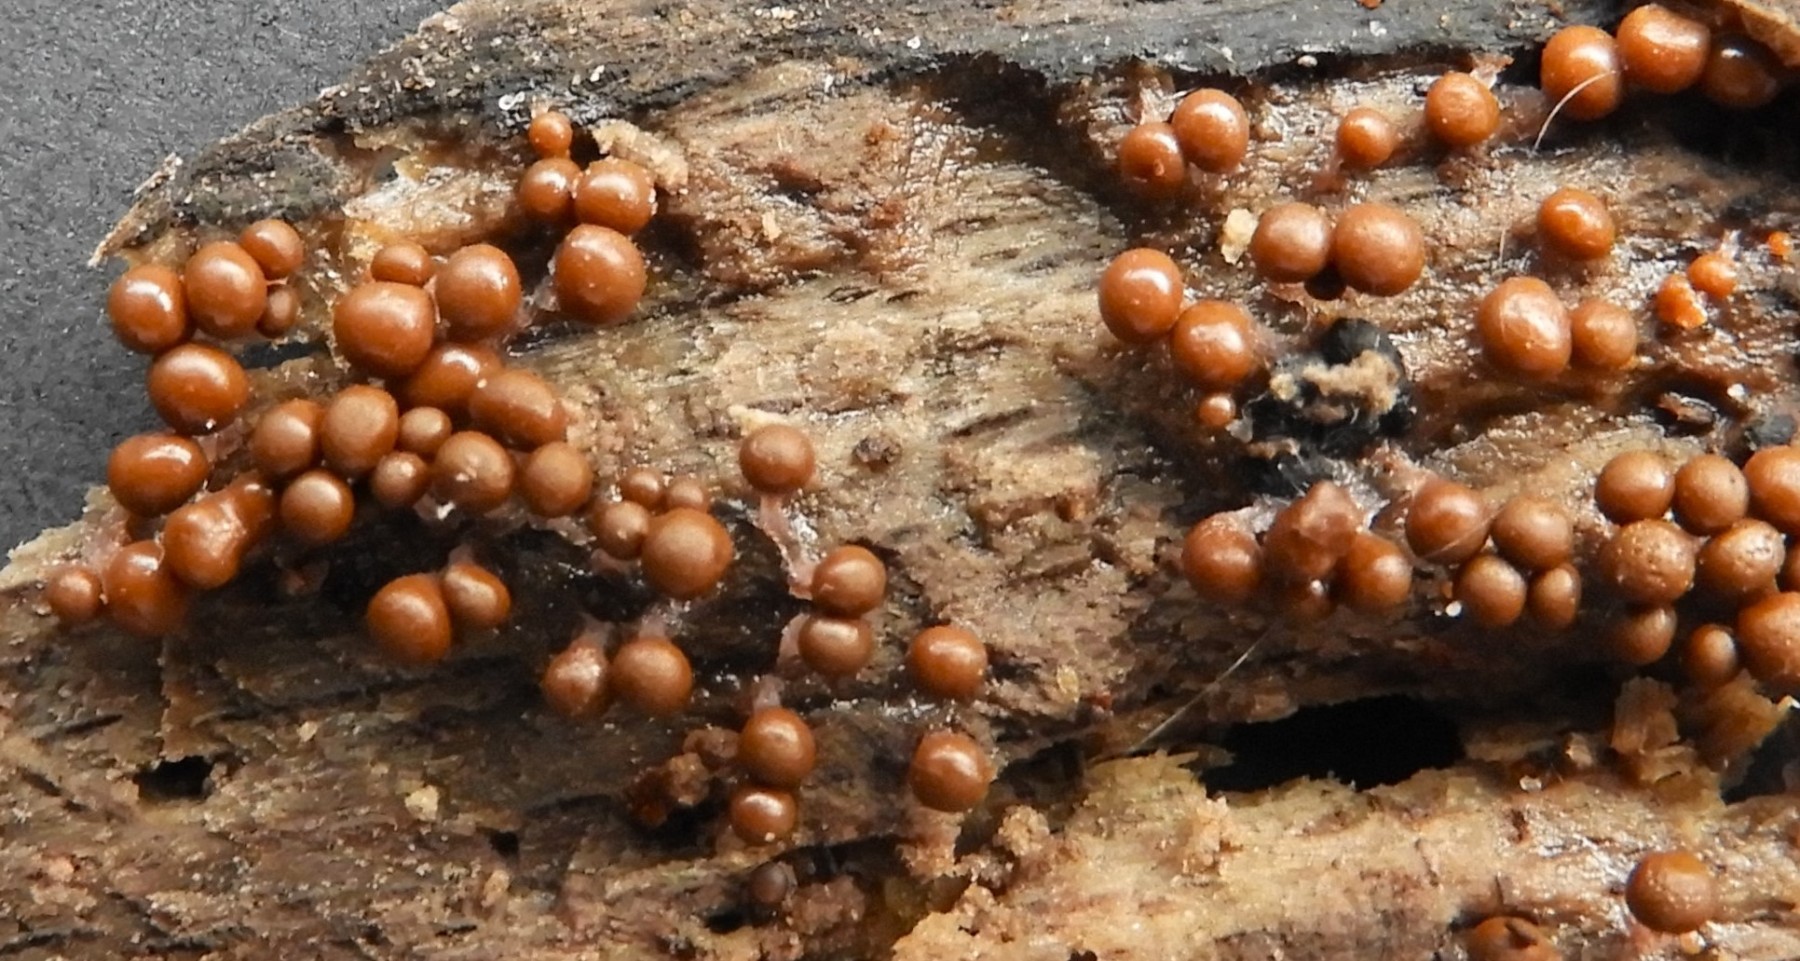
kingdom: Protozoa
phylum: Mycetozoa
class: Myxomycetes
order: Trichiales
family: Trichiaceae
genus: Trichia
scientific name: Trichia crateriformis
